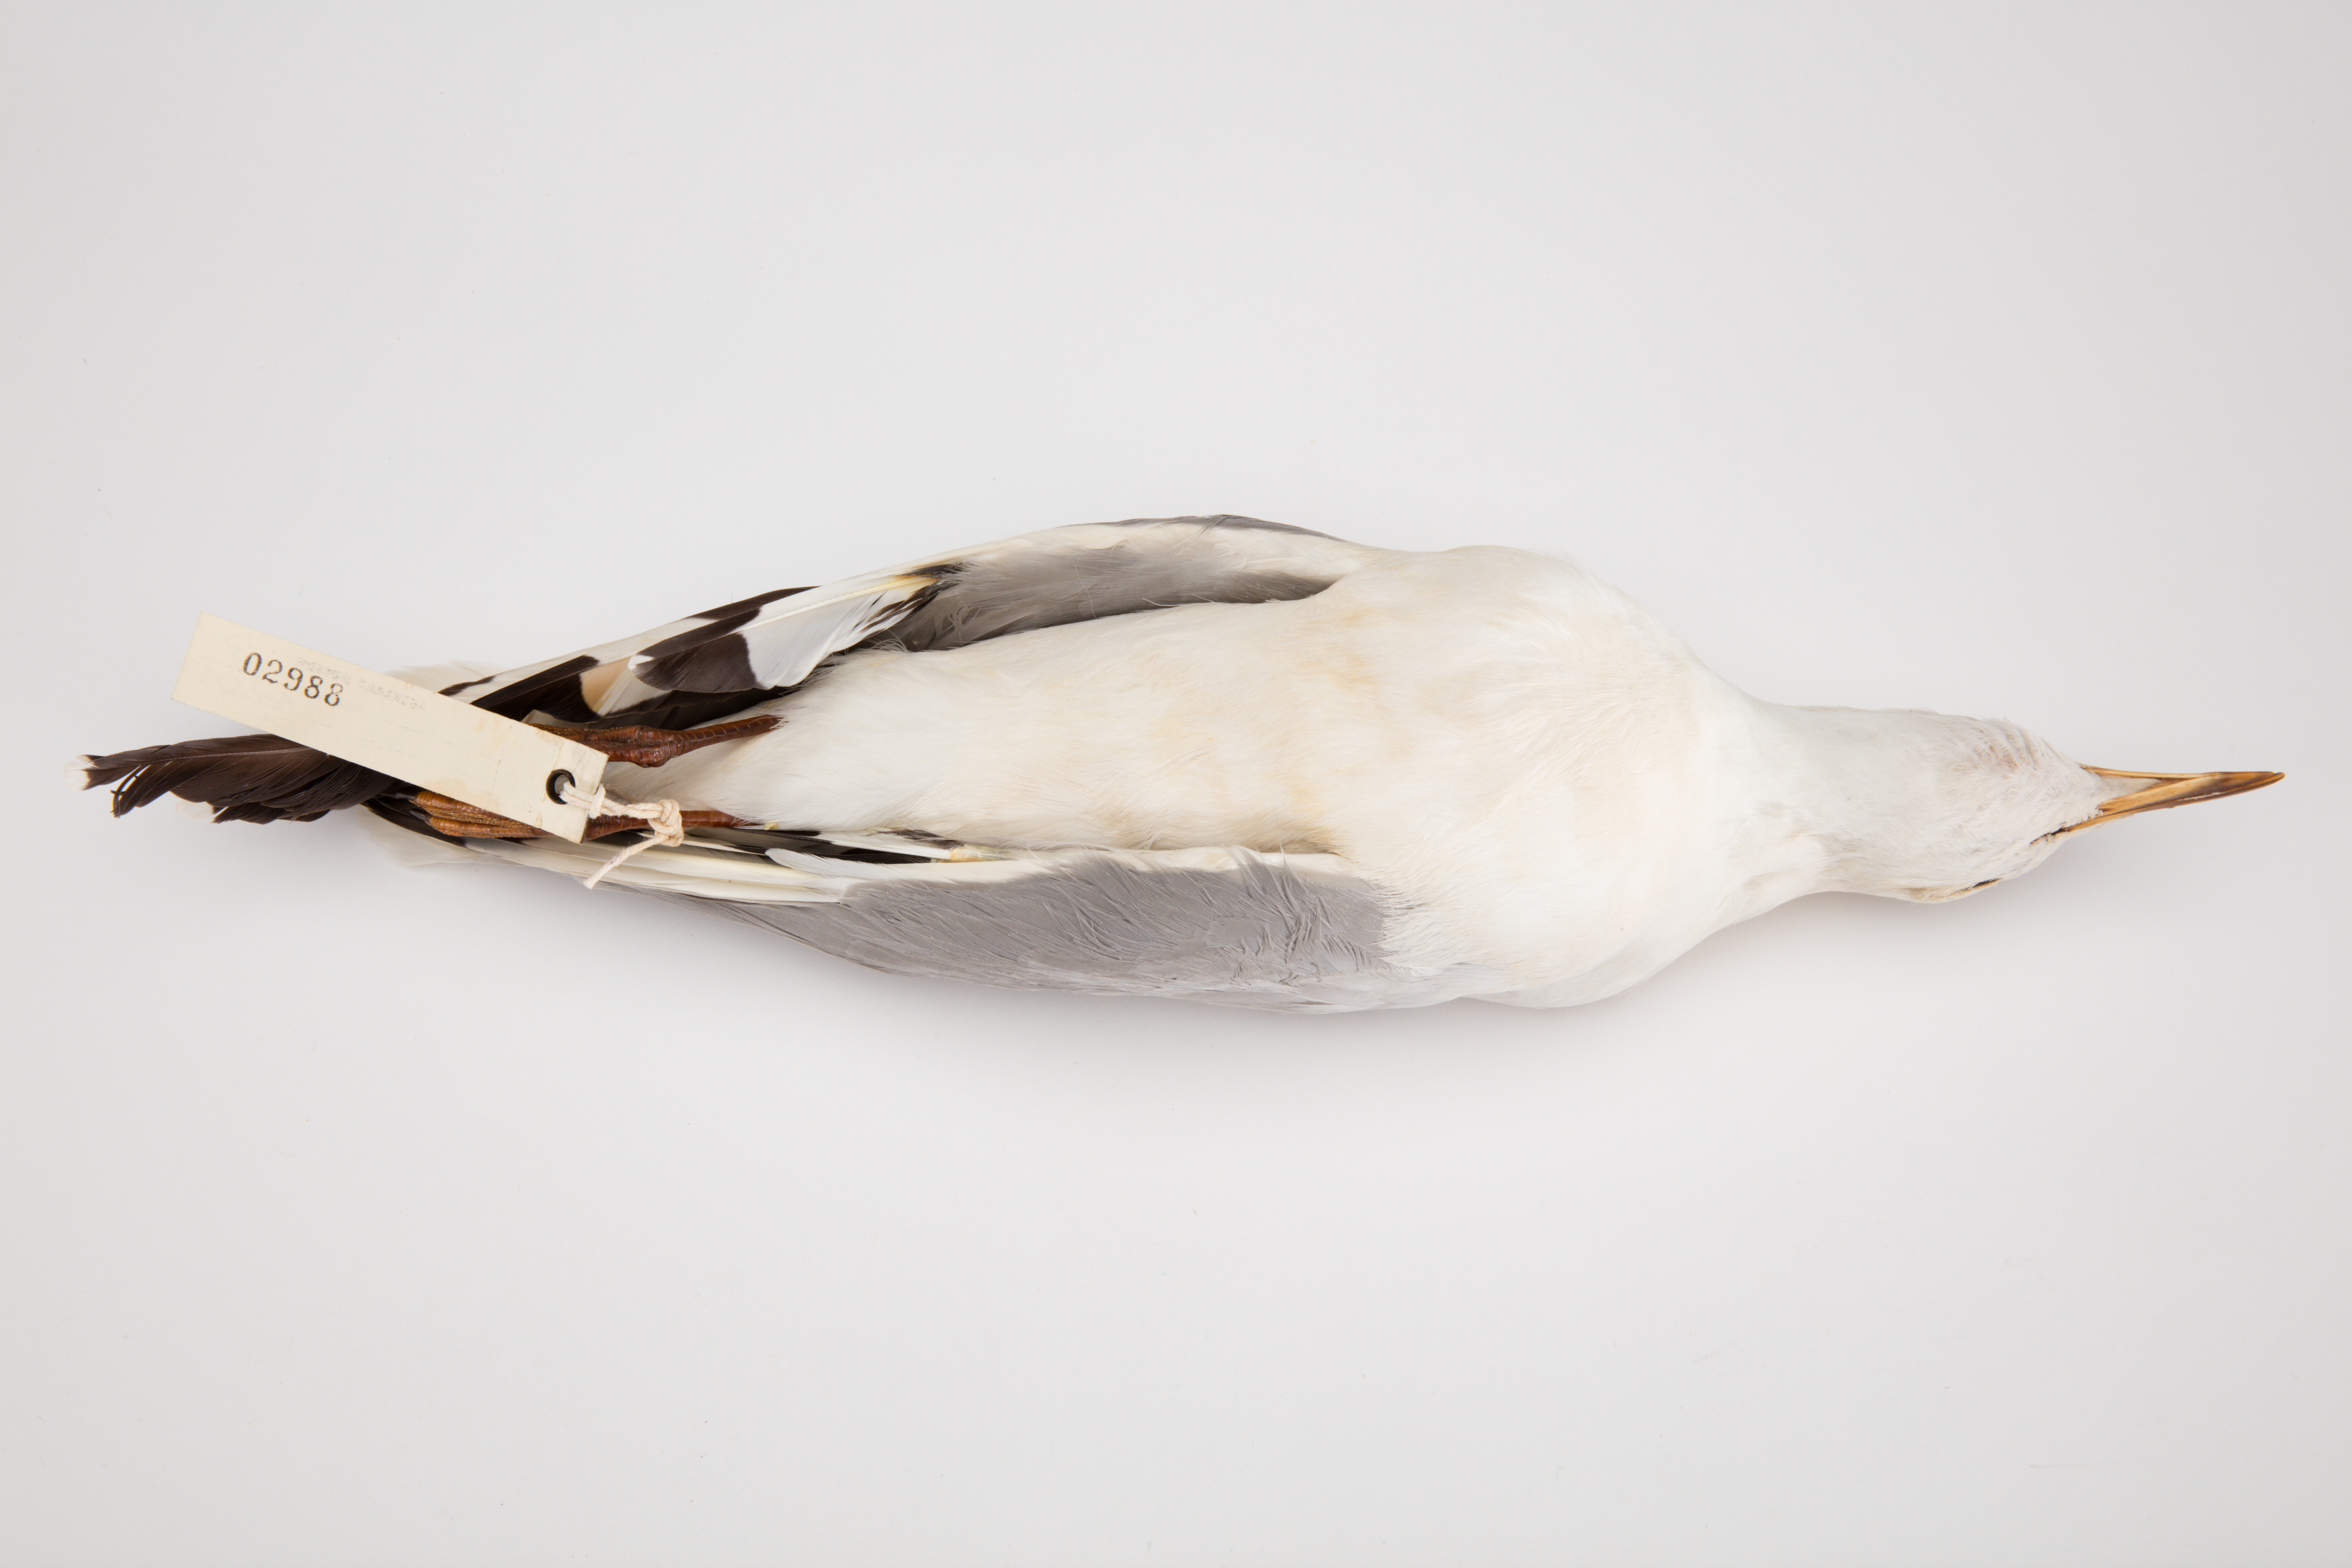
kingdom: Animalia
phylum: Chordata
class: Aves
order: Charadriiformes
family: Laridae
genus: Chroicocephalus
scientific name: Chroicocephalus novaehollandiae
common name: Silver gull
